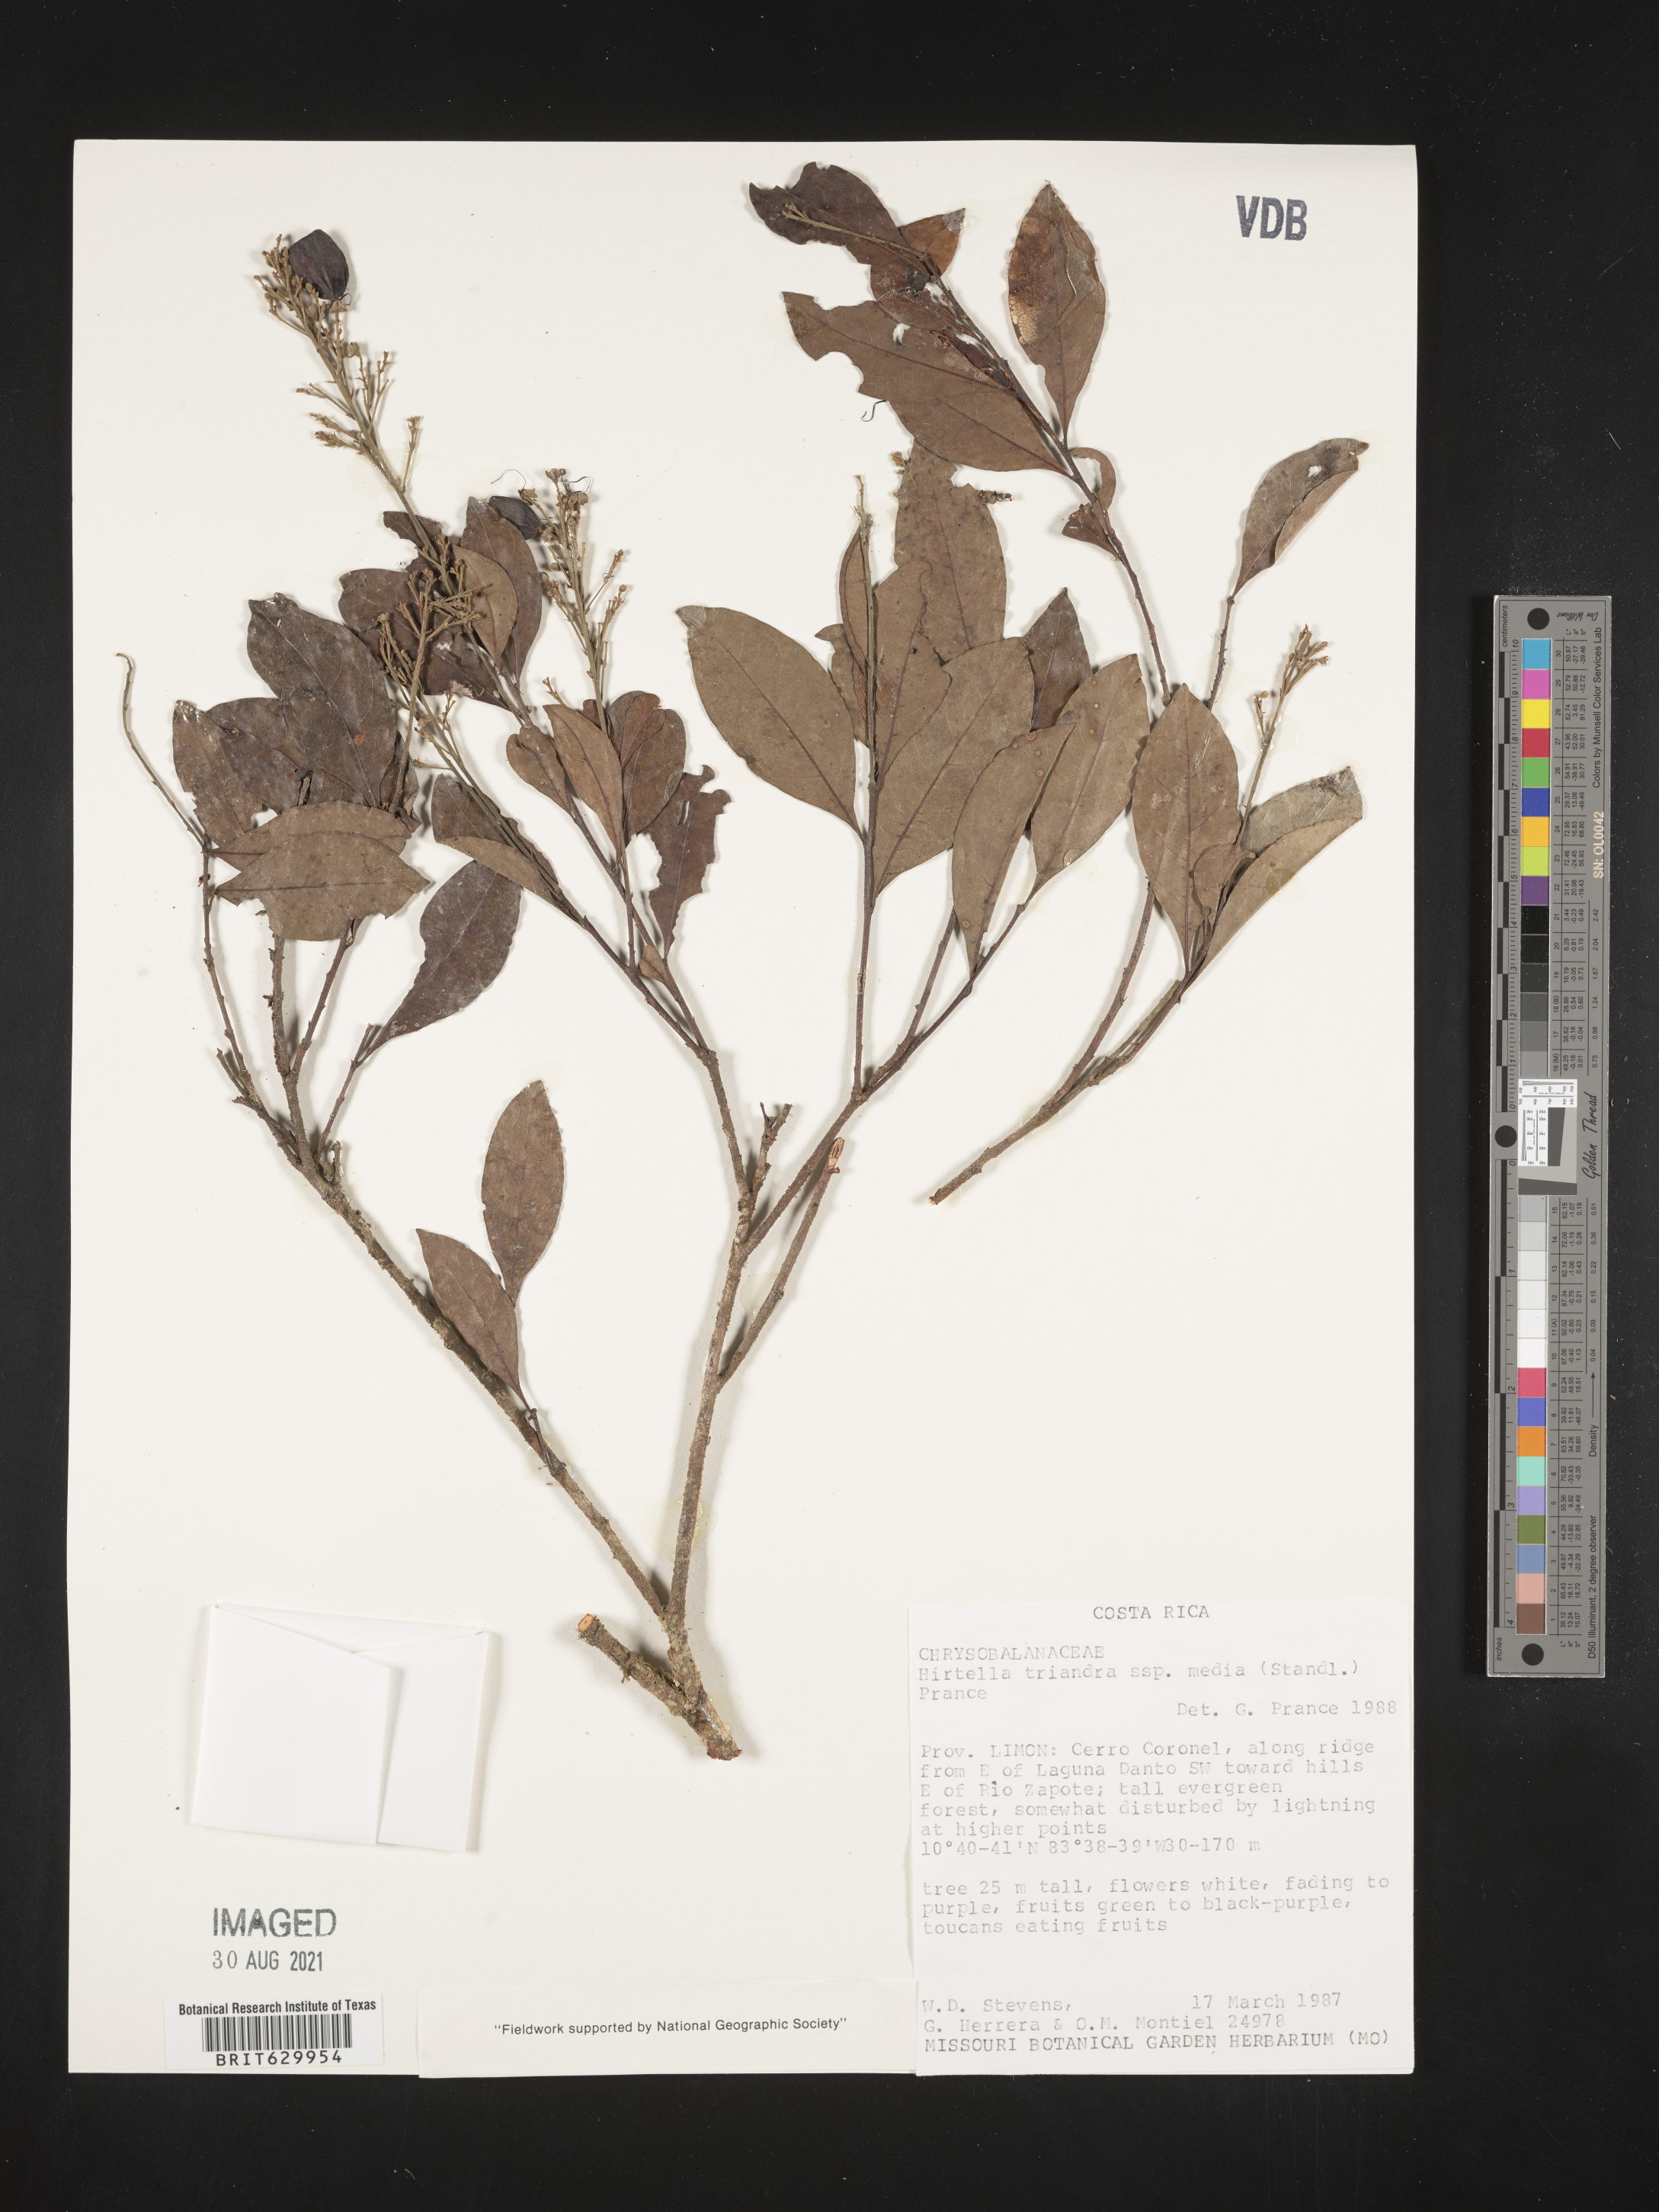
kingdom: Plantae
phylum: Tracheophyta
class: Magnoliopsida
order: Malpighiales
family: Chrysobalanaceae
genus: Hirtella
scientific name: Hirtella triandra
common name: Hairy plum
